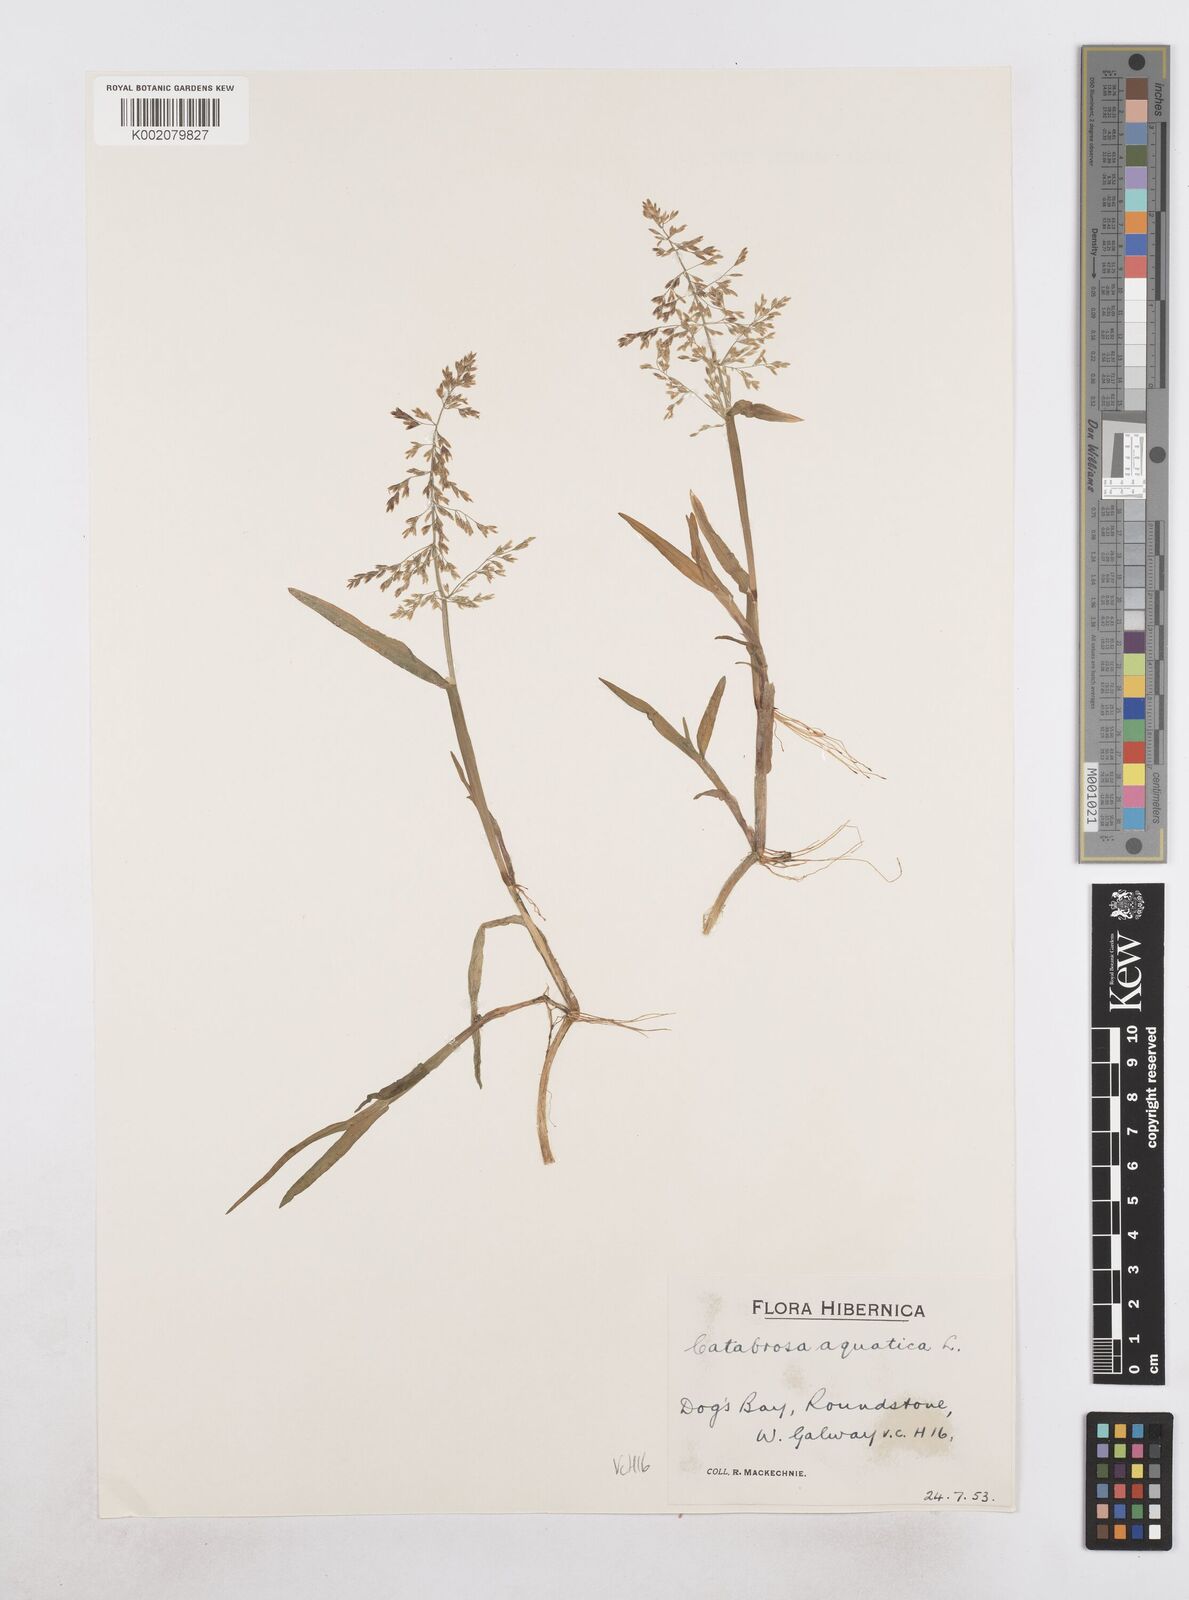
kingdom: Plantae
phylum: Tracheophyta
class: Liliopsida
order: Poales
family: Poaceae
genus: Catabrosa
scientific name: Catabrosa aquatica
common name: Whorl-grass
